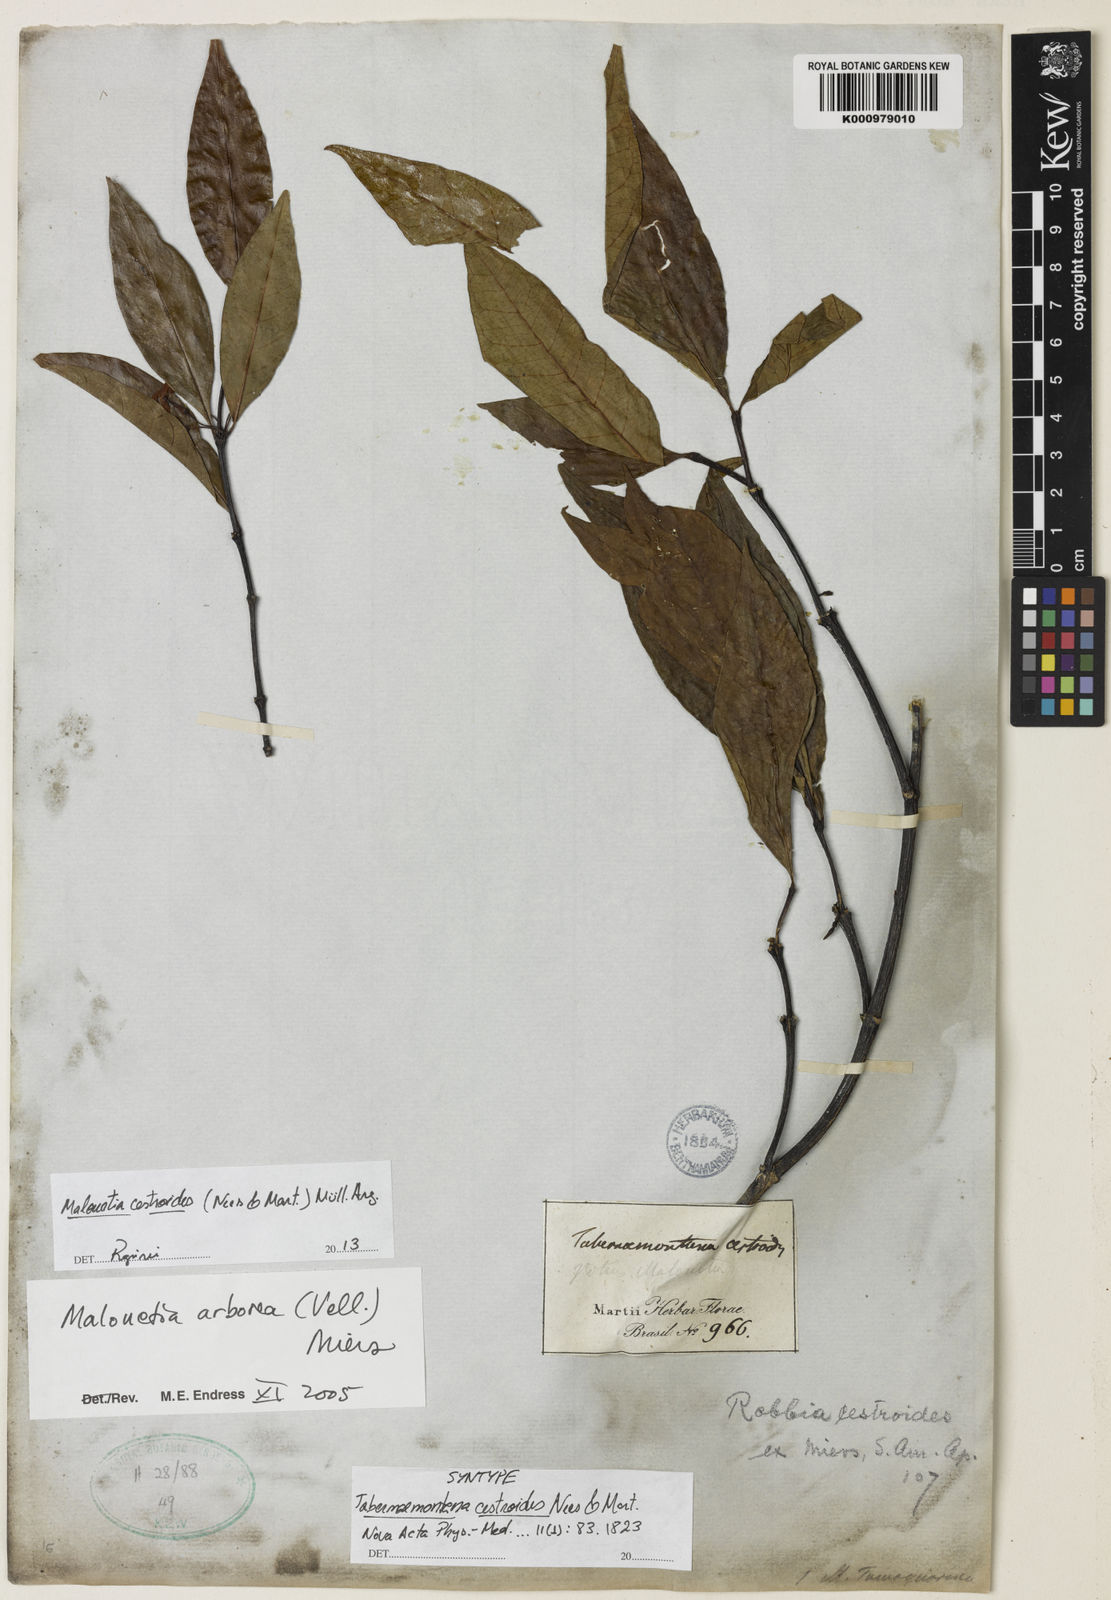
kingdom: Plantae
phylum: Tracheophyta
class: Magnoliopsida
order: Gentianales
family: Apocynaceae
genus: Malouetia
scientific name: Malouetia
